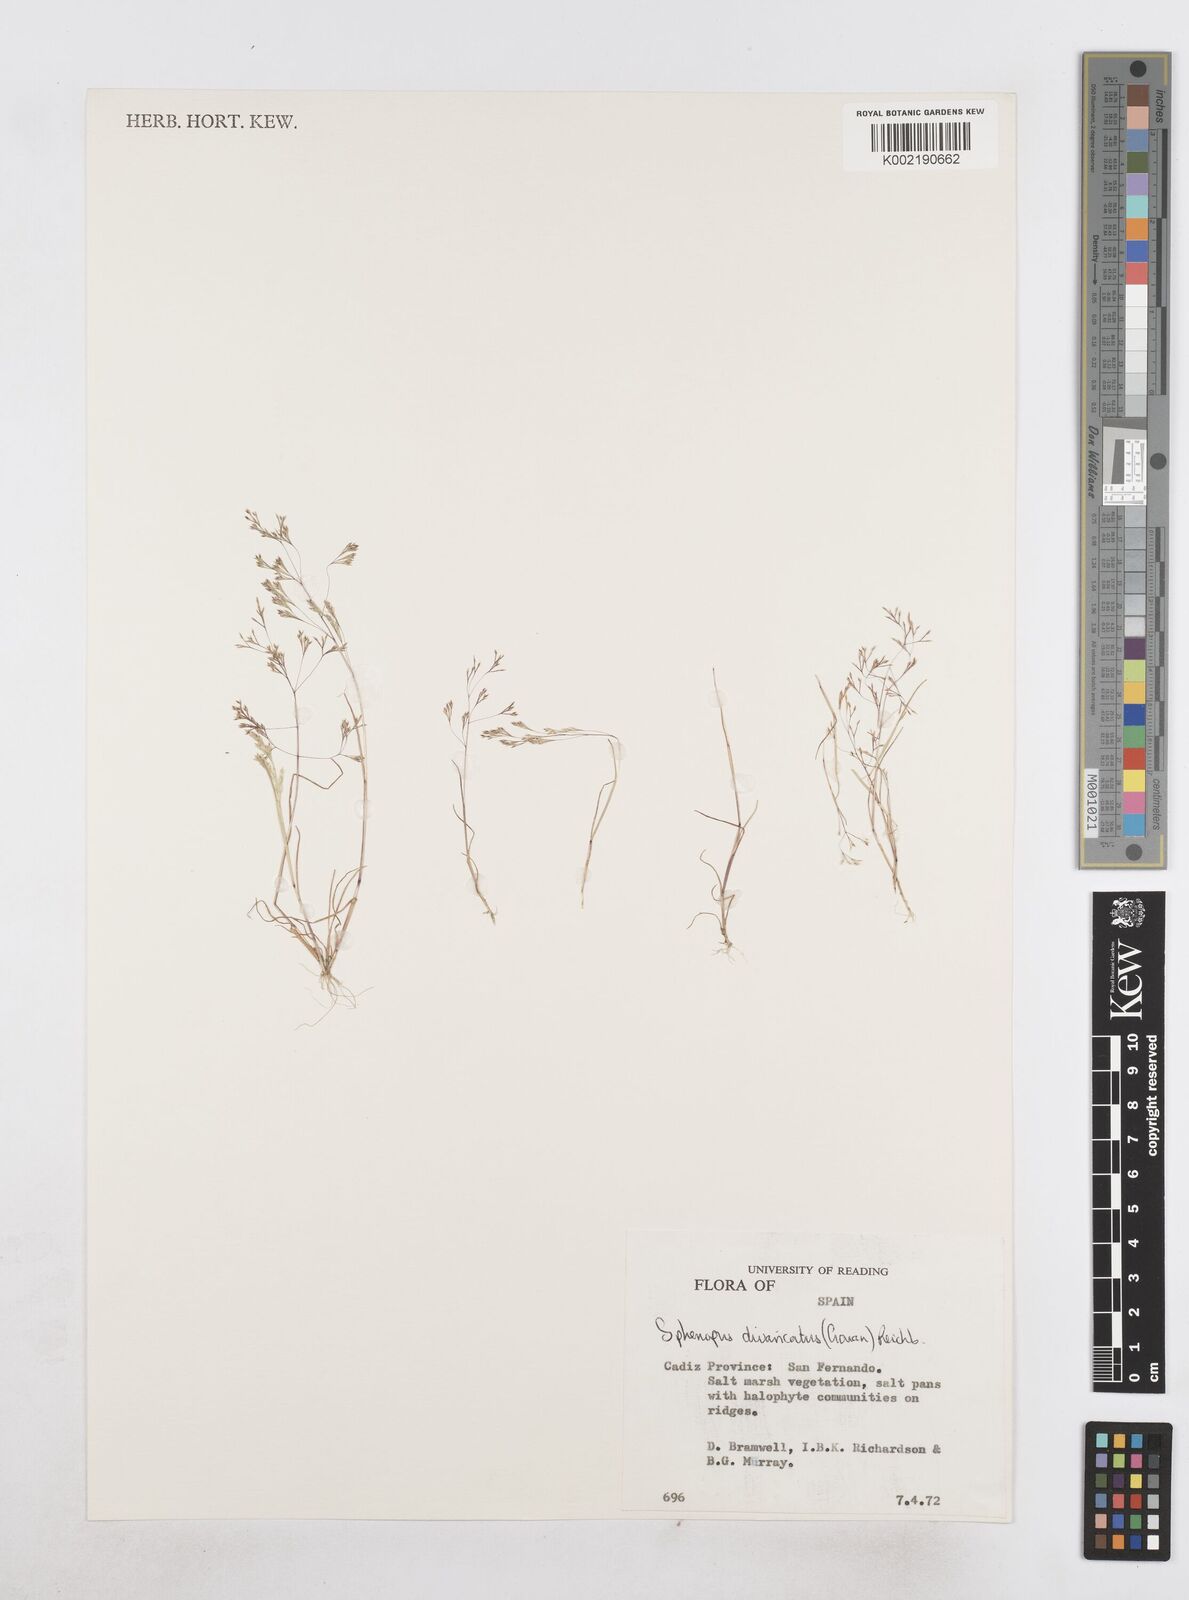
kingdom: Plantae
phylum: Tracheophyta
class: Liliopsida
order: Poales
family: Poaceae
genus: Sphenopus
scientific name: Sphenopus divaricatus
